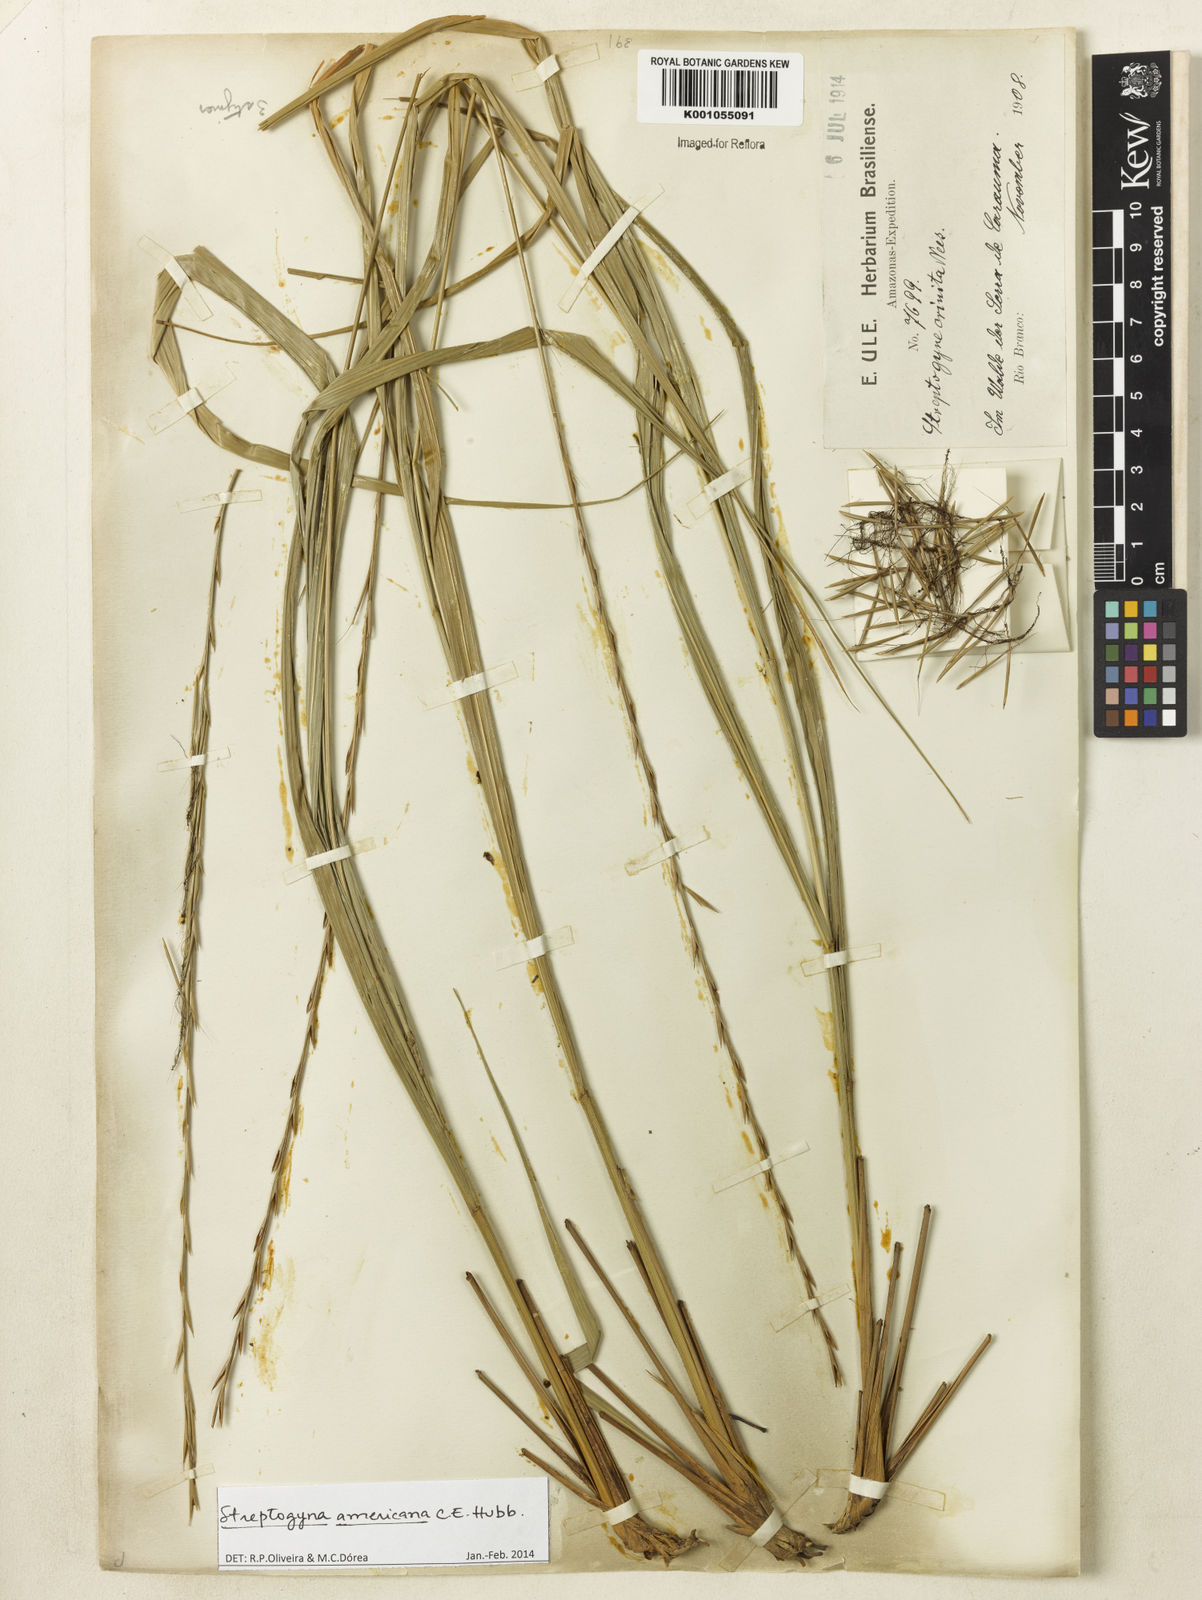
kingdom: Plantae
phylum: Tracheophyta
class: Liliopsida
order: Poales
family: Poaceae
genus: Streptogyna
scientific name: Streptogyna americana
